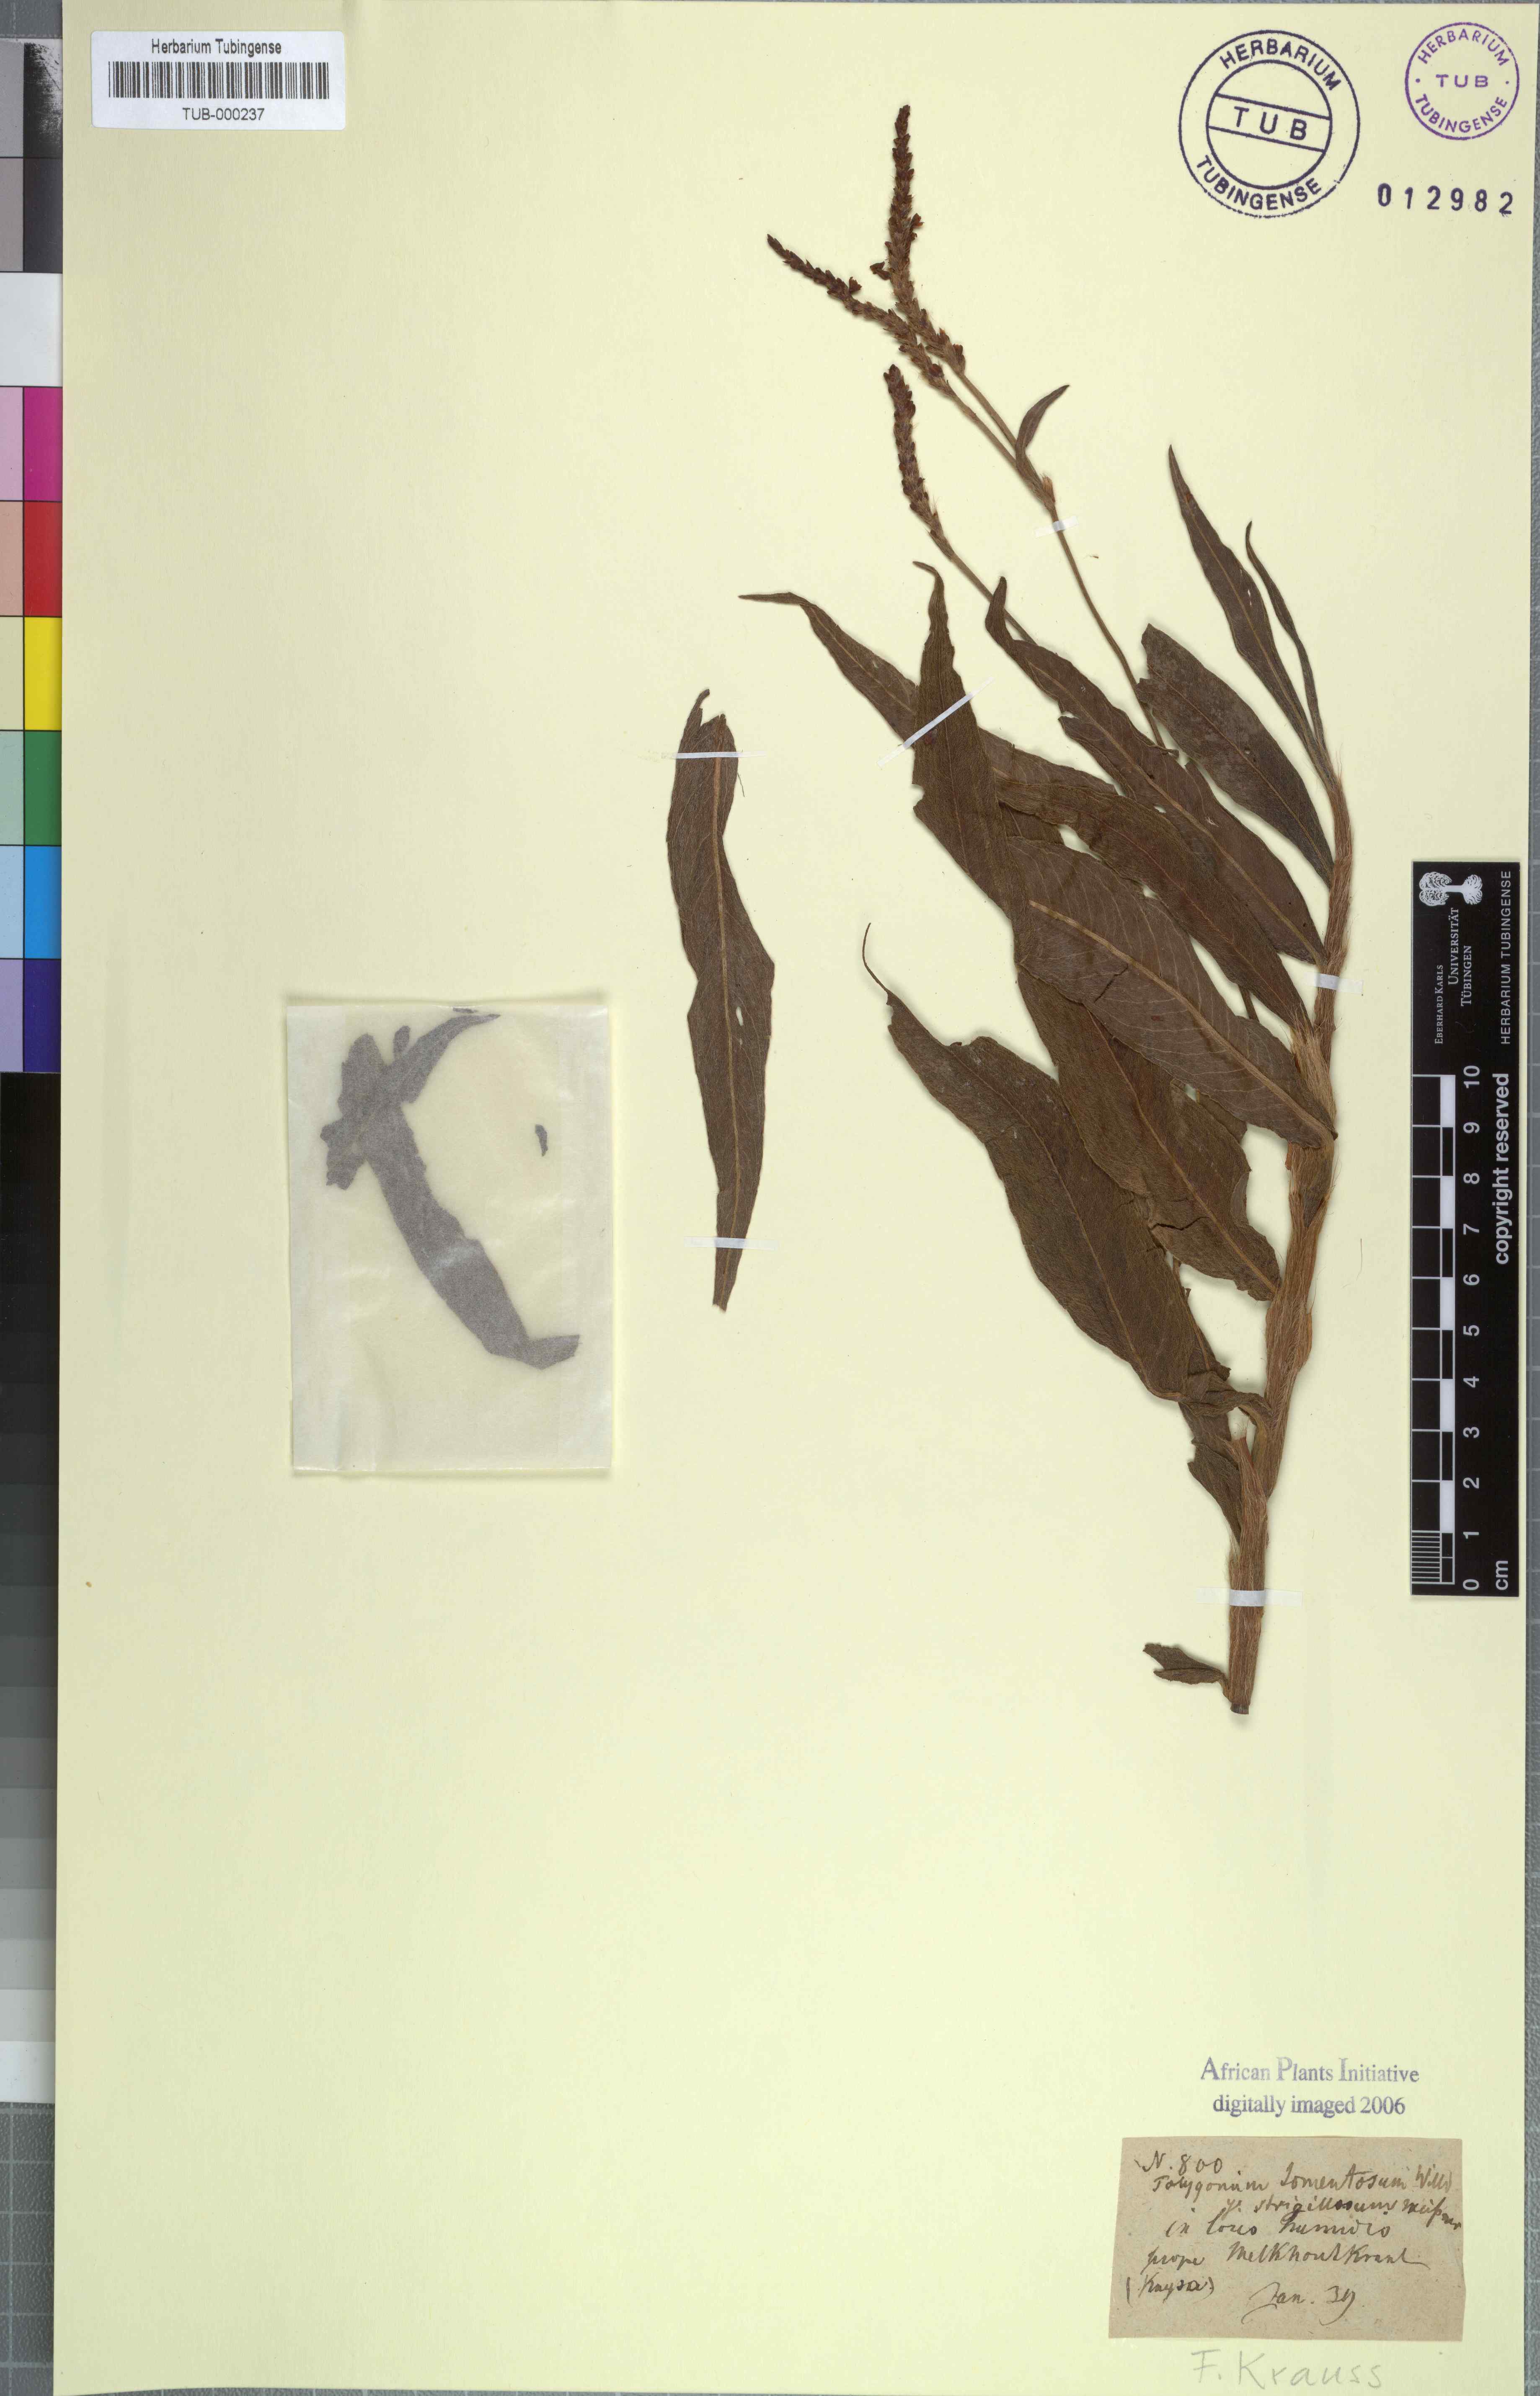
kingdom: Plantae
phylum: Tracheophyta
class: Magnoliopsida
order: Caryophyllales
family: Polygonaceae
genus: Persicaria
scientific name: Persicaria madagascariensis
